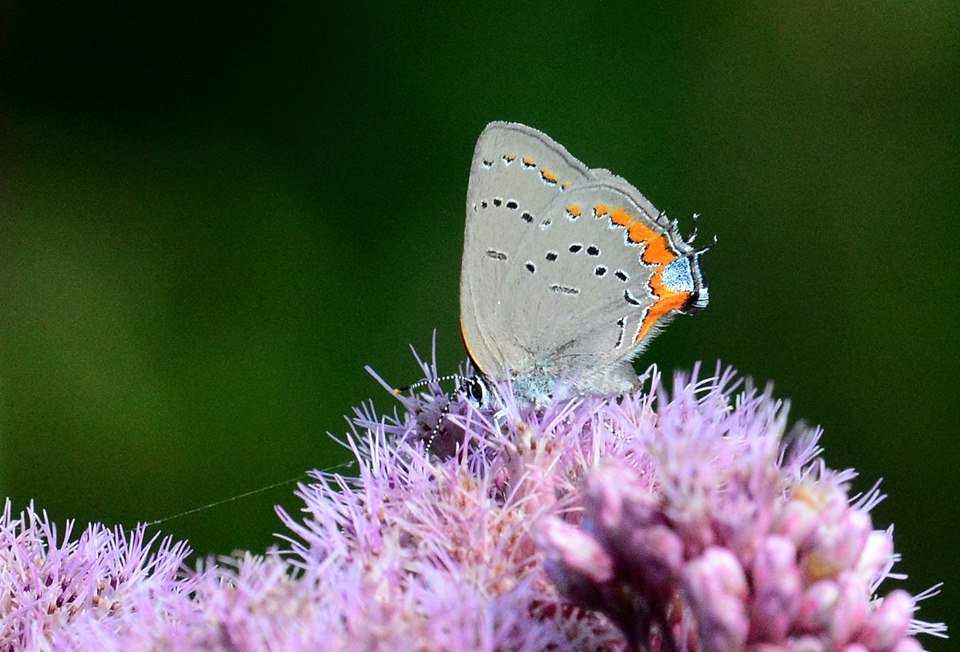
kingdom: Animalia
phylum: Arthropoda
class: Insecta
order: Lepidoptera
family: Lycaenidae
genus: Strymon
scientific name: Strymon acadica
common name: Acadian Hairstreak
